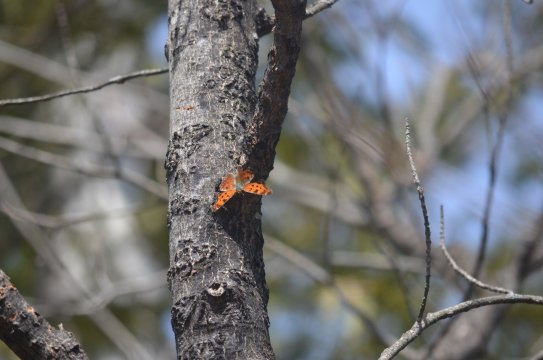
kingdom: Animalia
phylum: Arthropoda
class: Insecta
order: Lepidoptera
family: Nymphalidae
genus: Polygonia
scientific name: Polygonia comma
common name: Eastern Comma
